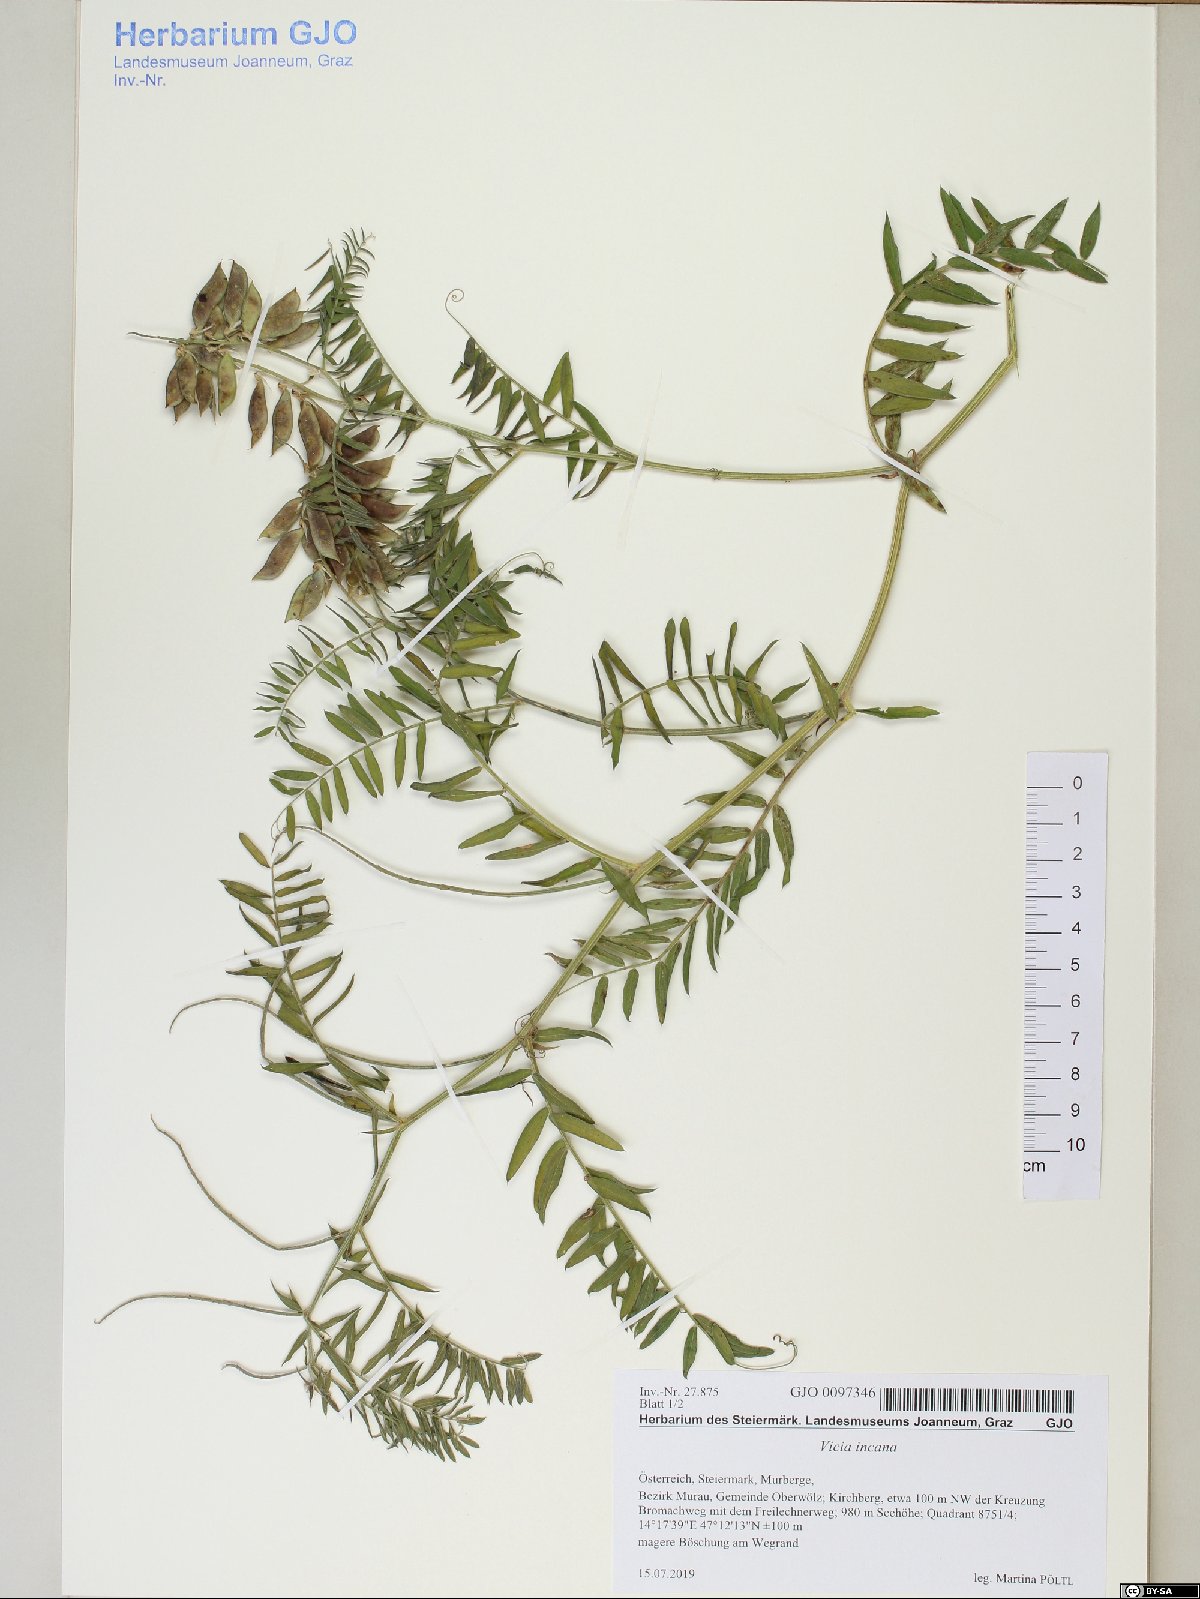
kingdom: Plantae
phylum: Tracheophyta
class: Magnoliopsida
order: Fabales
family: Fabaceae
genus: Vicia
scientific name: Vicia incana
